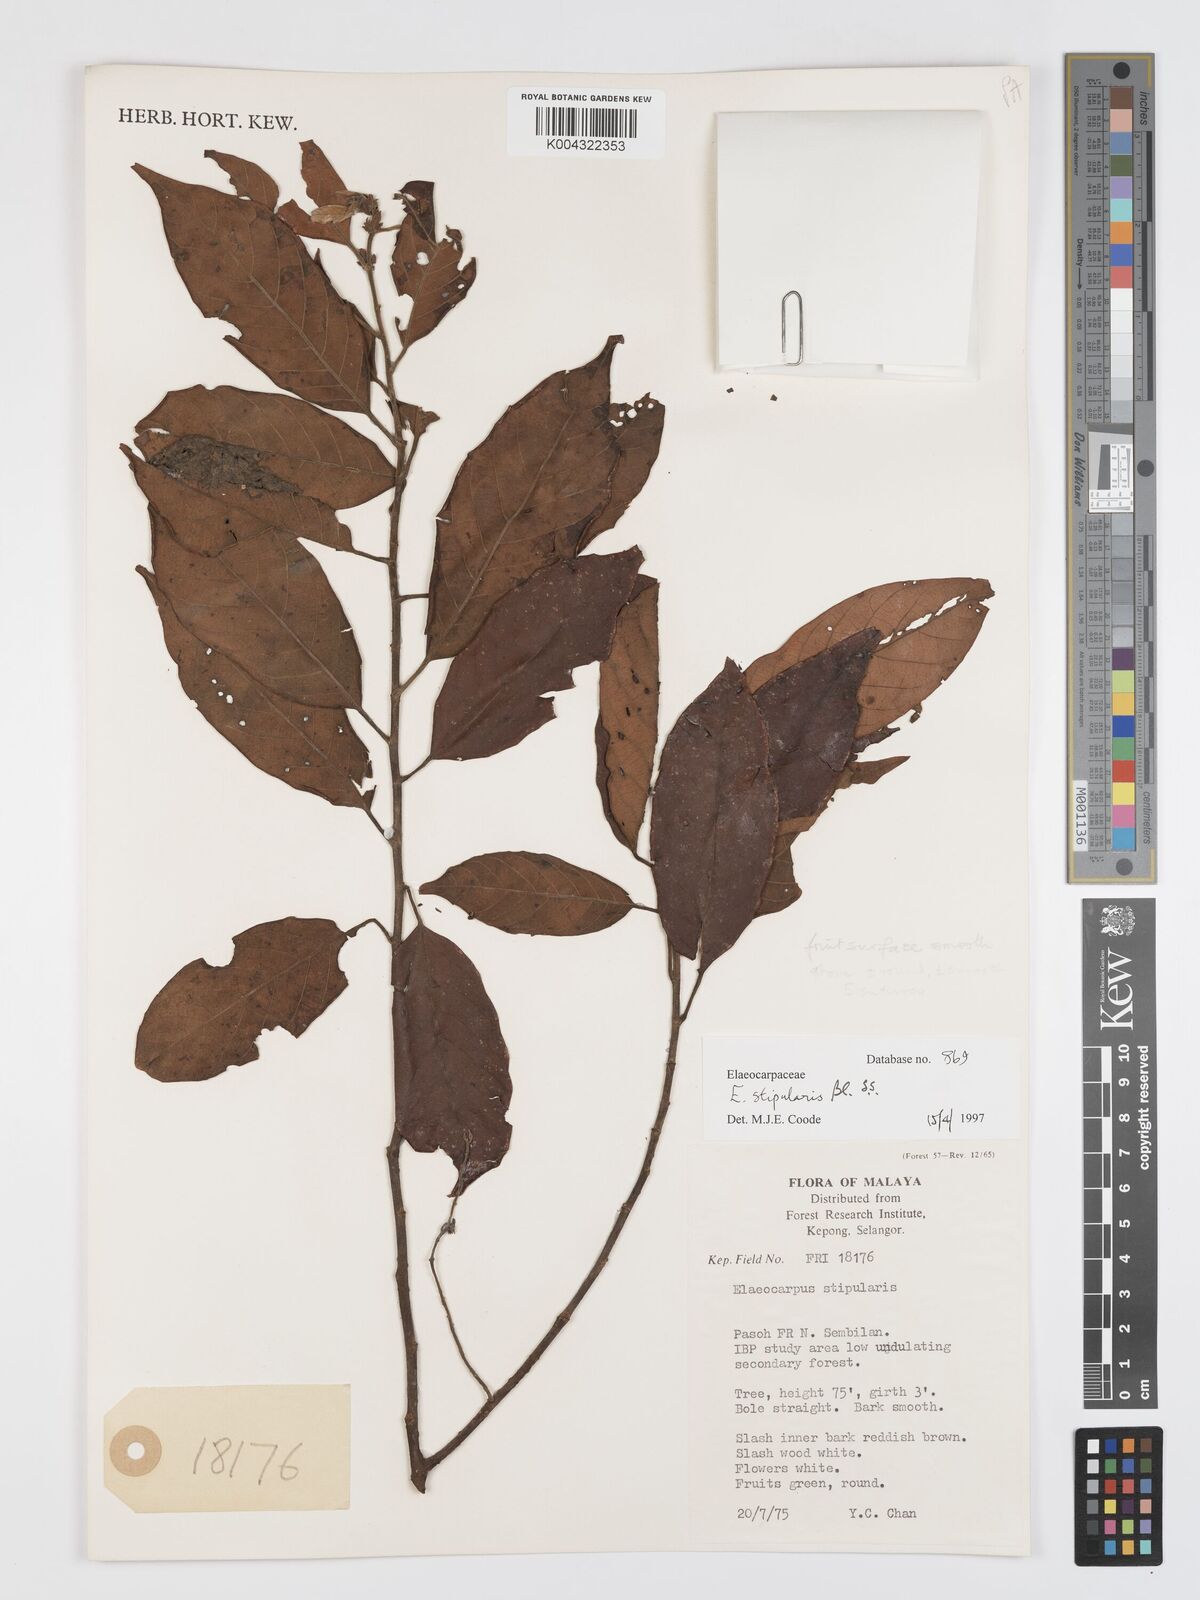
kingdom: Plantae
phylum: Tracheophyta
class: Magnoliopsida
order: Oxalidales
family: Elaeocarpaceae
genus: Elaeocarpus
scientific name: Elaeocarpus stipularis
